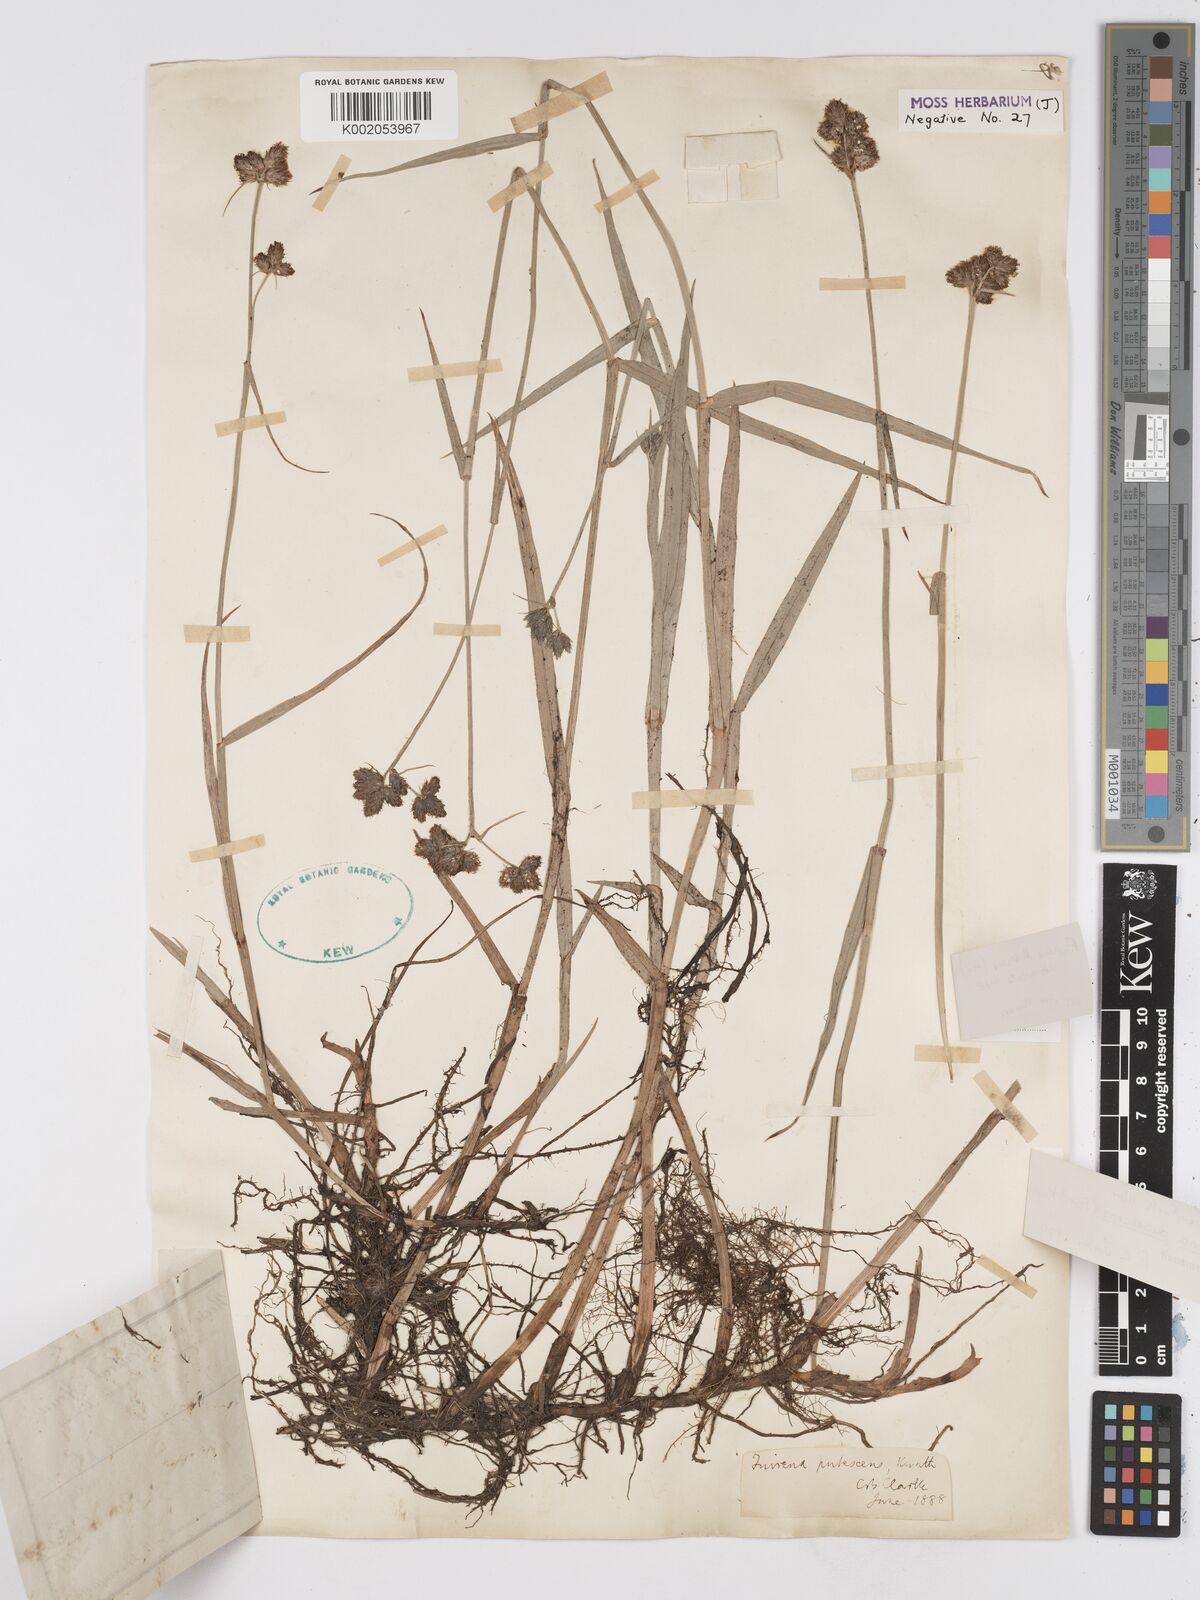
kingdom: Plantae
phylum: Tracheophyta
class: Liliopsida
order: Poales
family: Cyperaceae
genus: Fuirena
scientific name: Fuirena pubescens
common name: Hairy sedge
